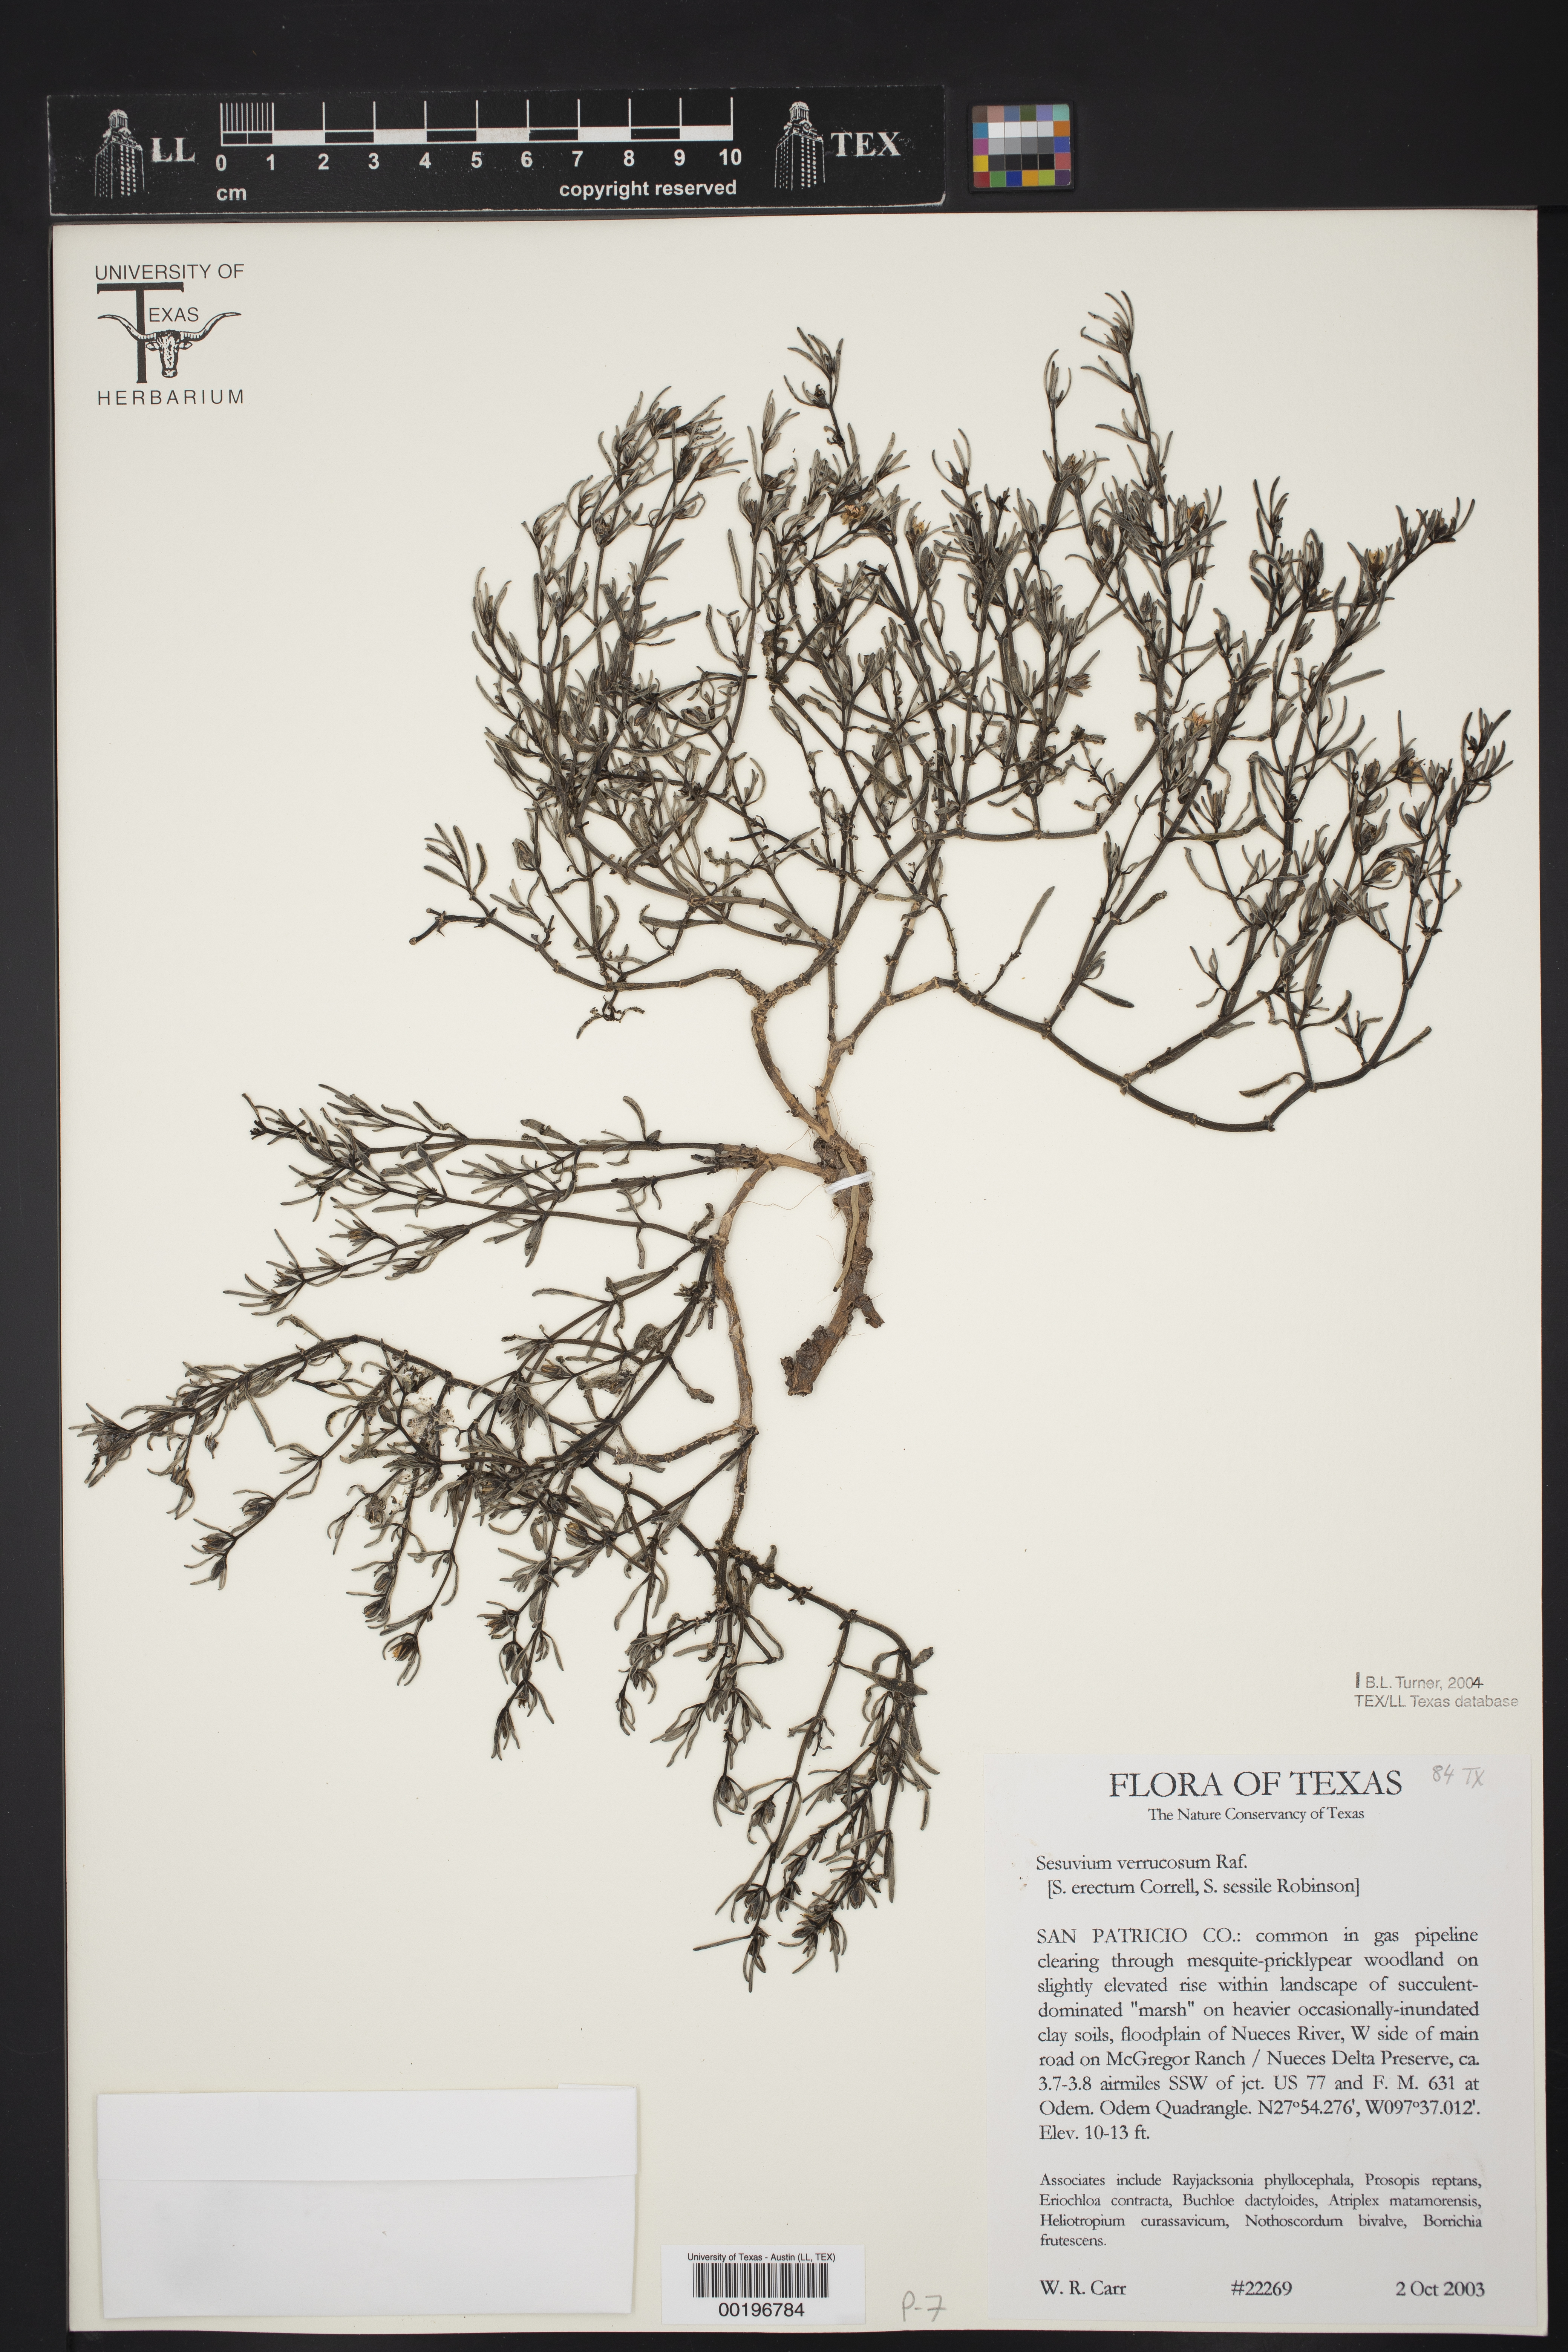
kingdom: Plantae
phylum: Tracheophyta
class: Magnoliopsida
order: Caryophyllales
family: Aizoaceae
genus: Sesuvium
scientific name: Sesuvium revolutifolium
